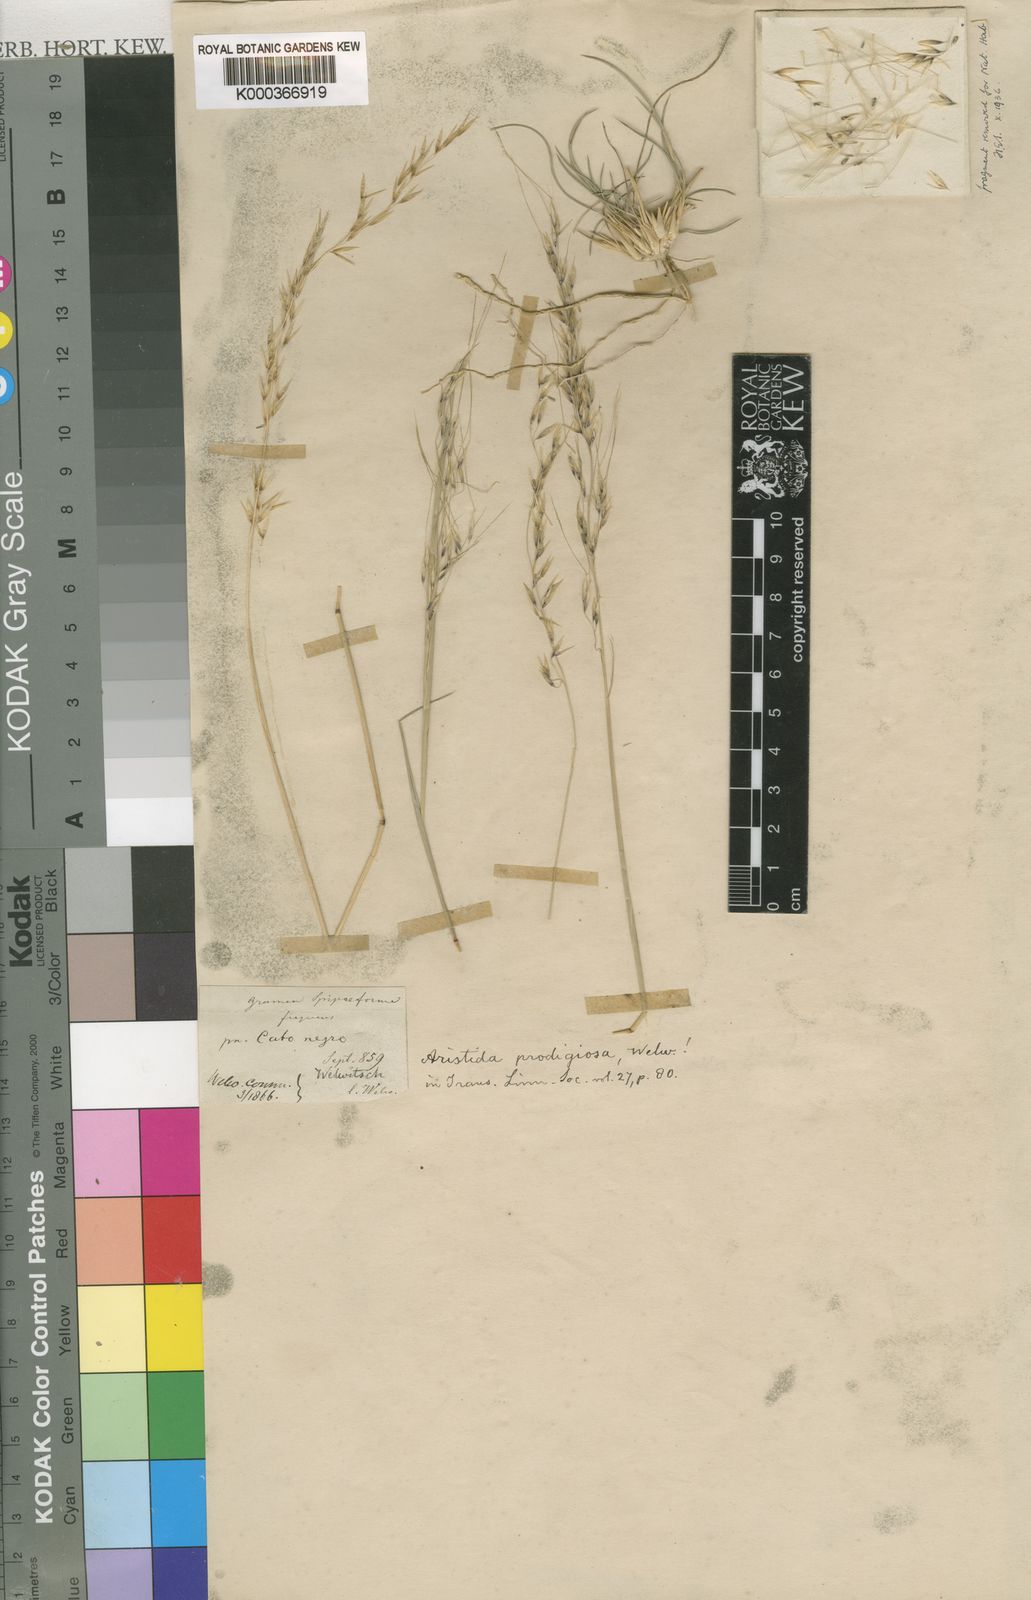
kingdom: Plantae
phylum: Tracheophyta
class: Liliopsida
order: Poales
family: Poaceae
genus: Stipagrostis
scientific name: Stipagrostis prodigiosa
